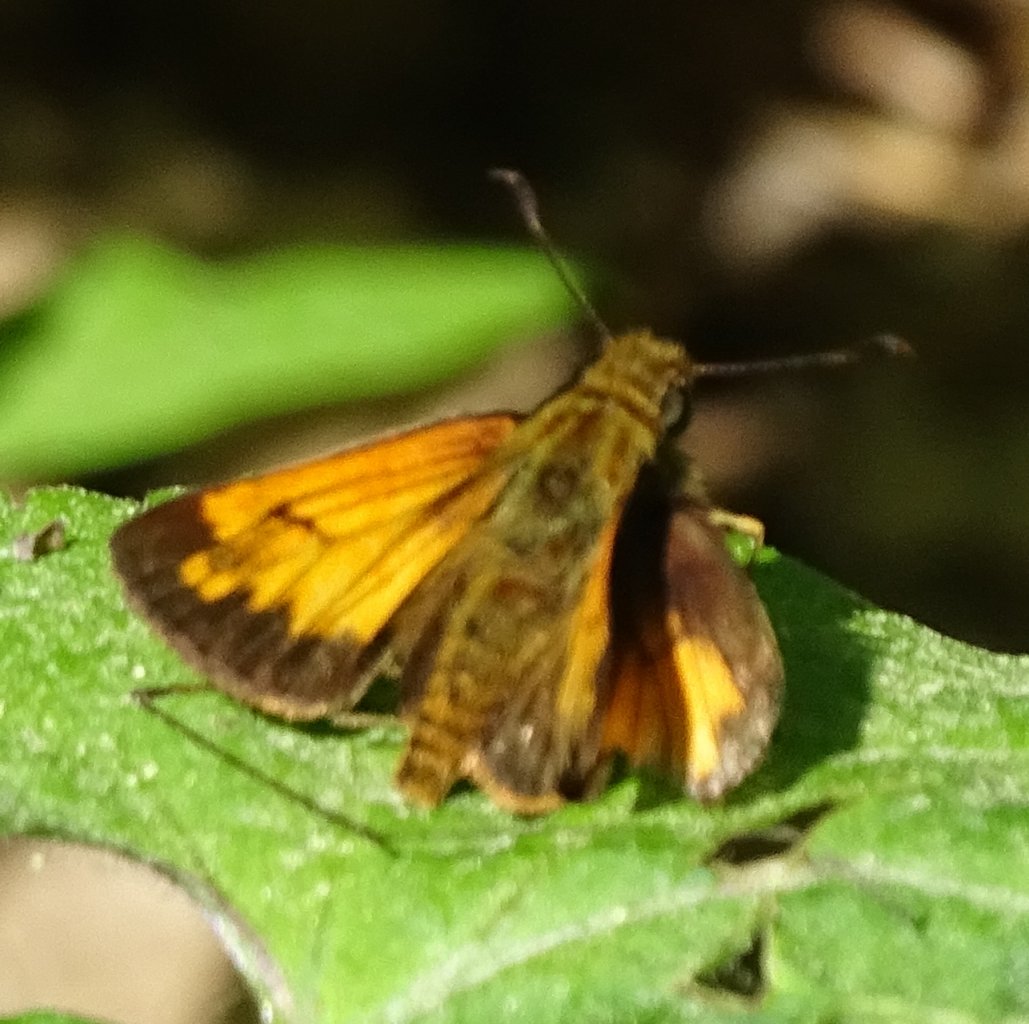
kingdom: Animalia
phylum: Arthropoda
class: Insecta
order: Lepidoptera
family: Hesperiidae
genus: Lon
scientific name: Lon hobomok
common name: Hobomok Skipper
